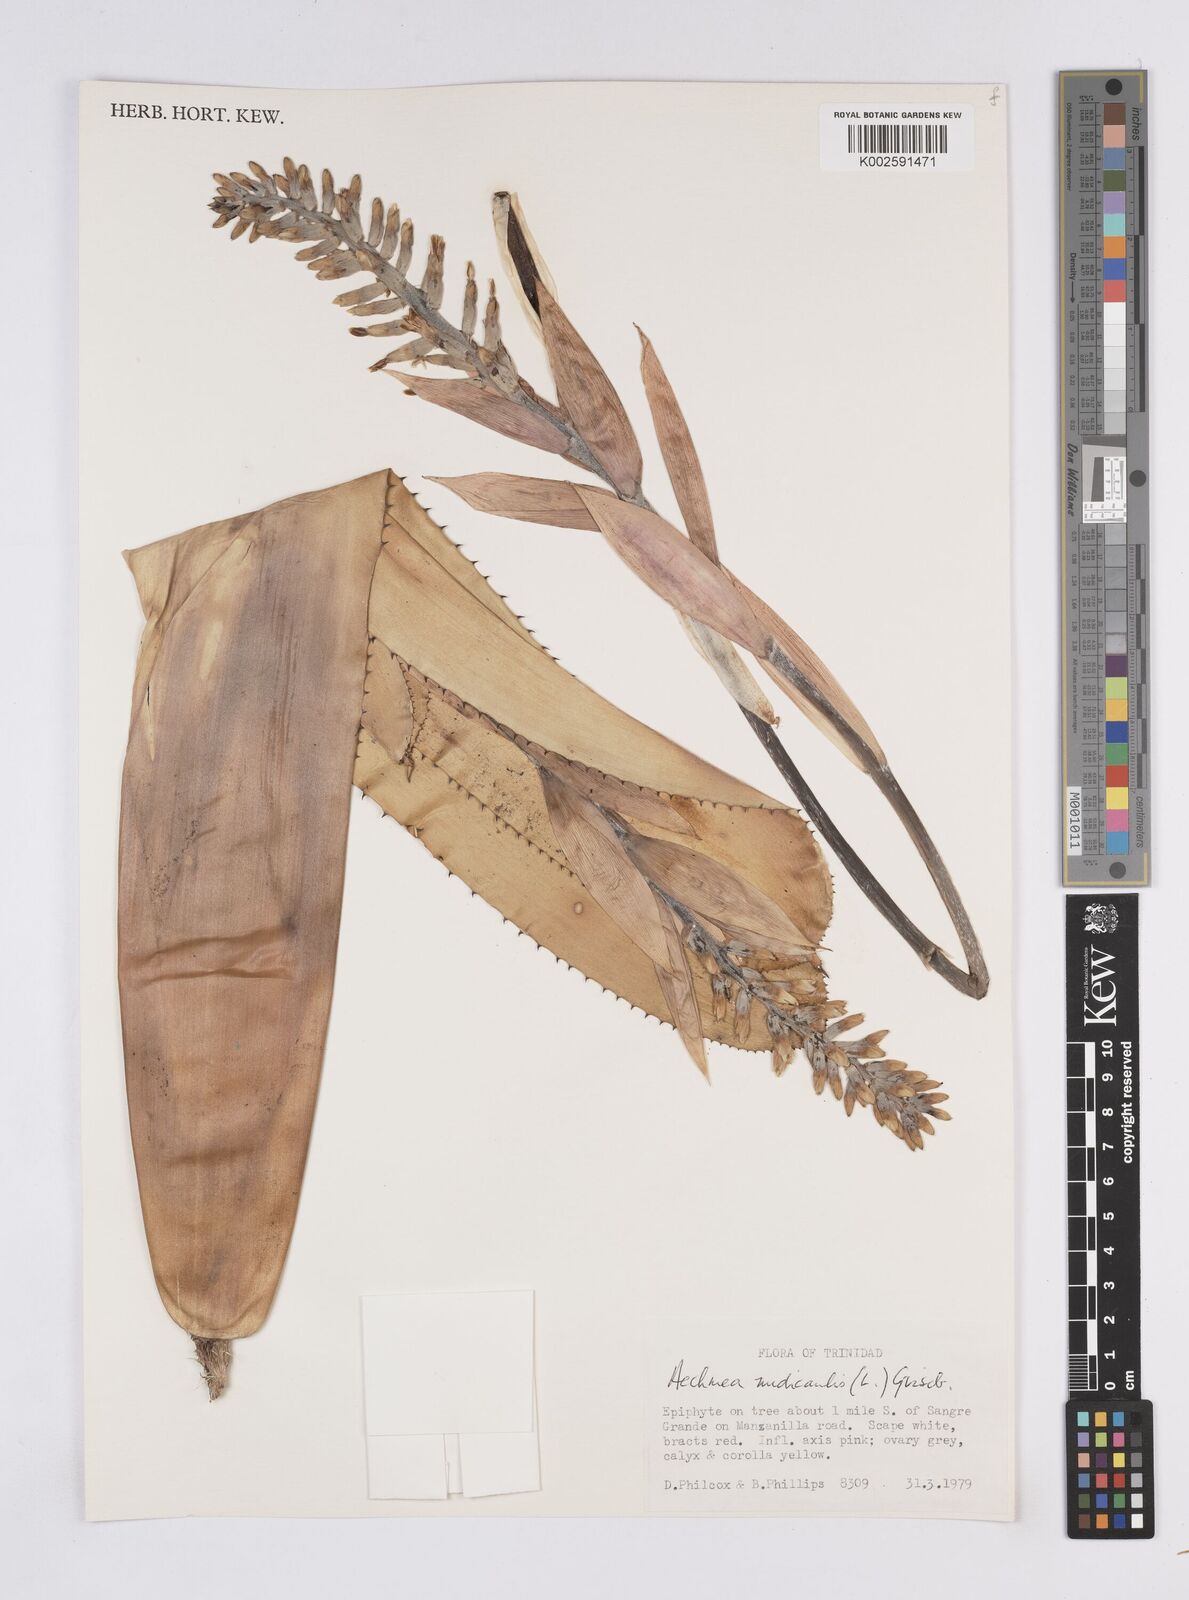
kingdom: Plantae
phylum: Tracheophyta
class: Liliopsida
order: Poales
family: Bromeliaceae
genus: Aechmea
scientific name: Aechmea nudicaulis
